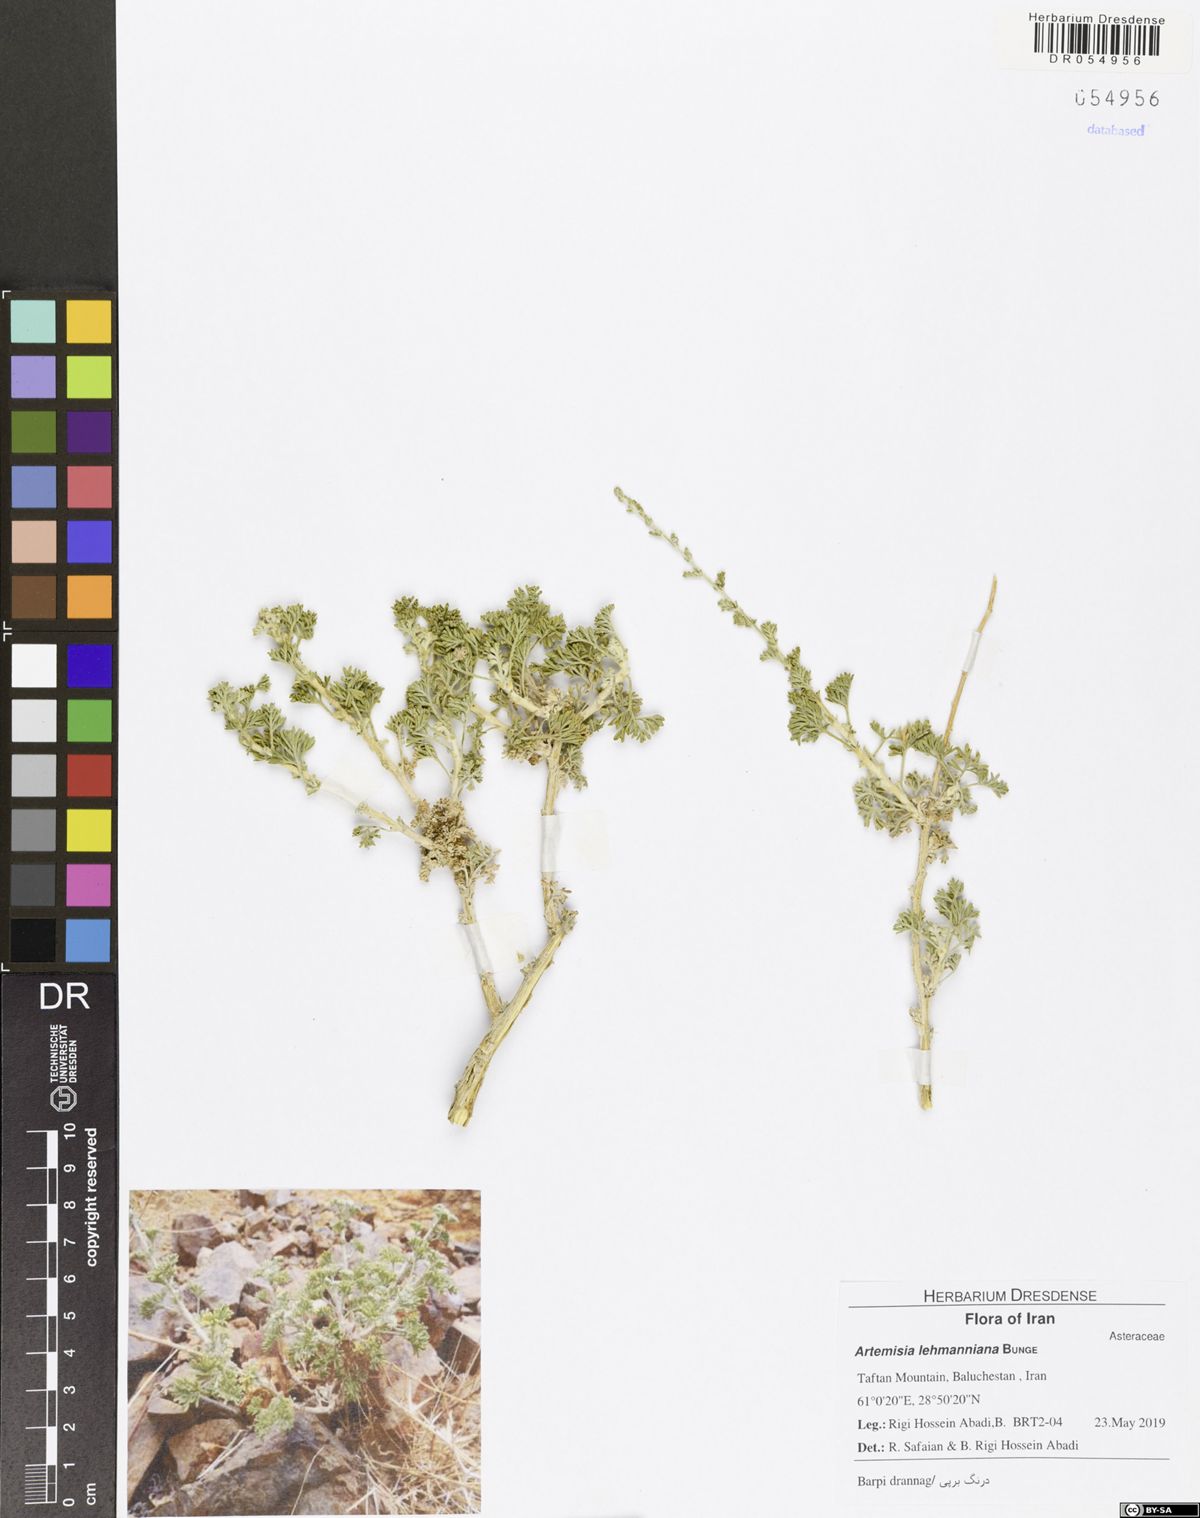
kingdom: Plantae
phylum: Tracheophyta
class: Magnoliopsida
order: Asterales
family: Asteraceae
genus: Artemisia
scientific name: Artemisia lehmanniana
